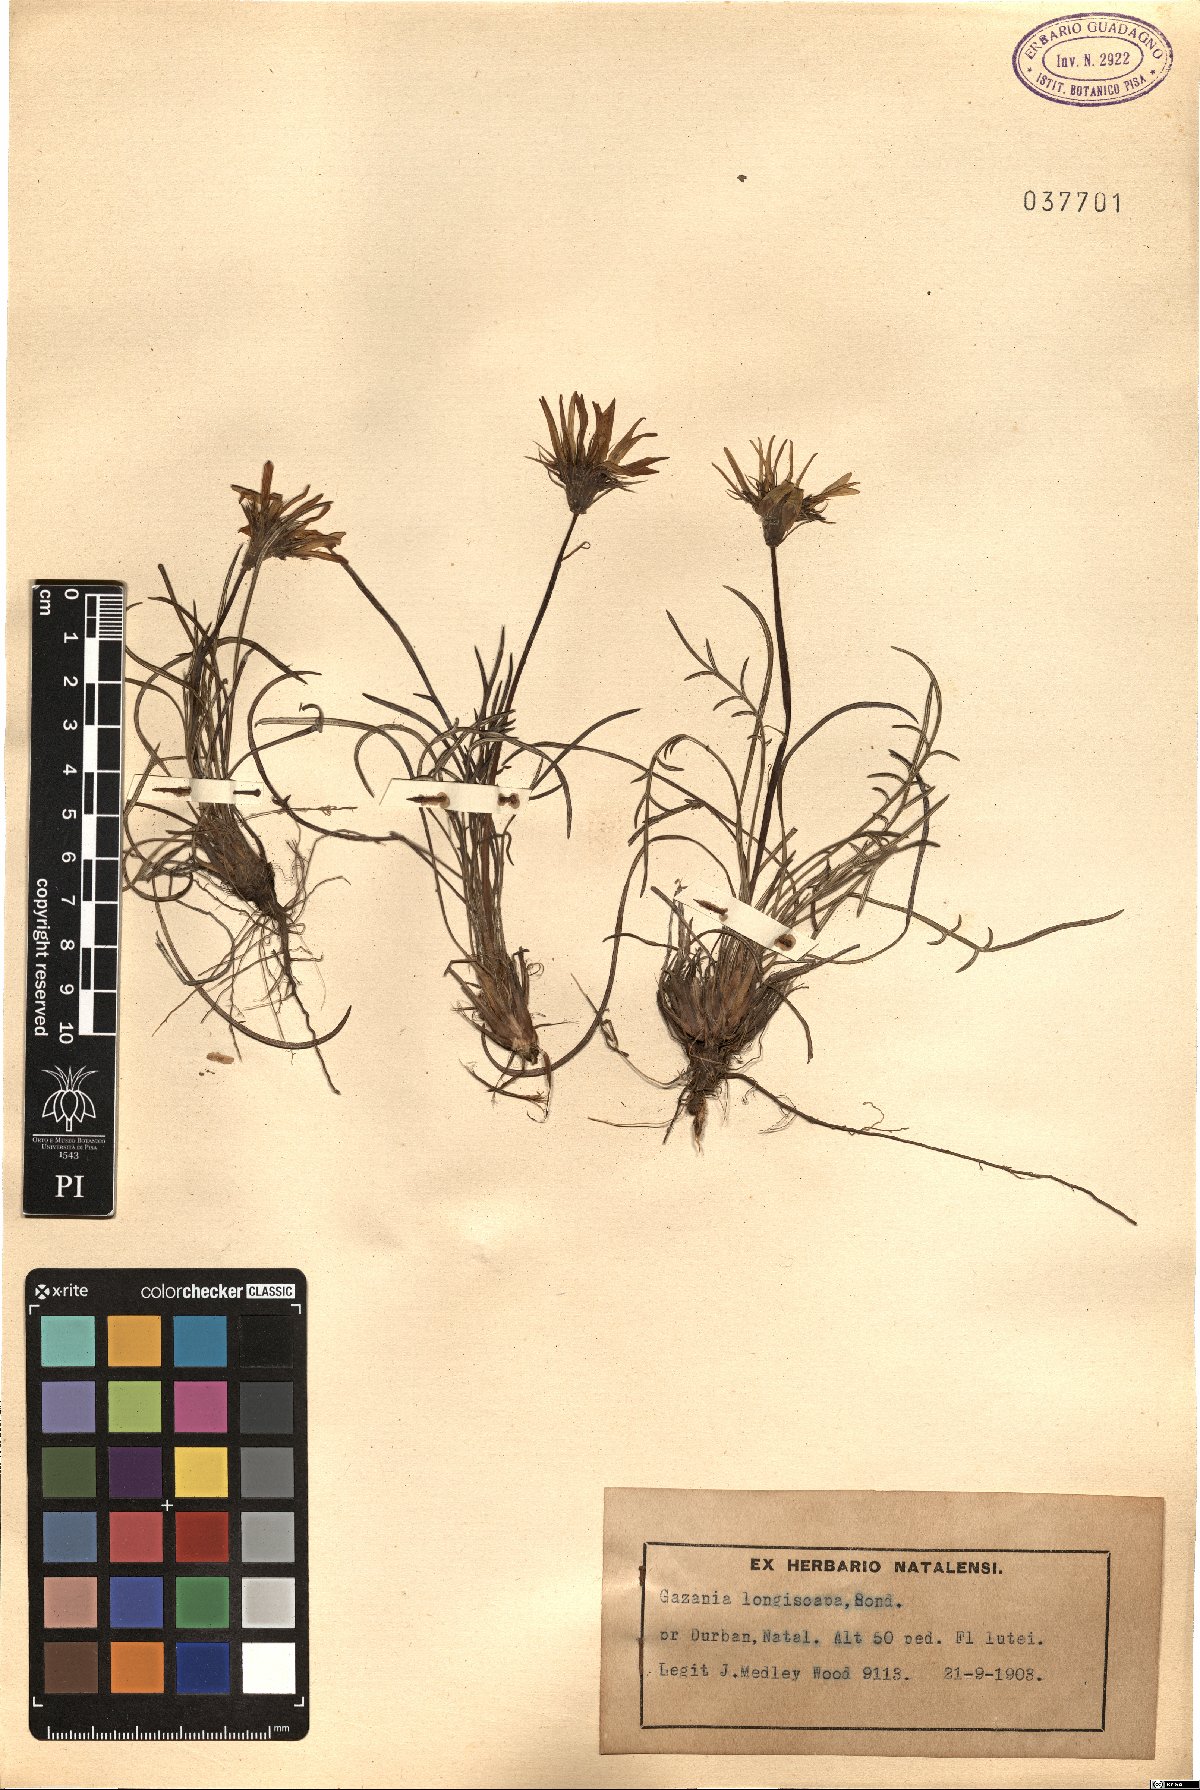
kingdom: Plantae
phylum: Tracheophyta
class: Magnoliopsida
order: Asterales
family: Asteraceae
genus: Gazania
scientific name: Gazania linearis
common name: Treasureflower
